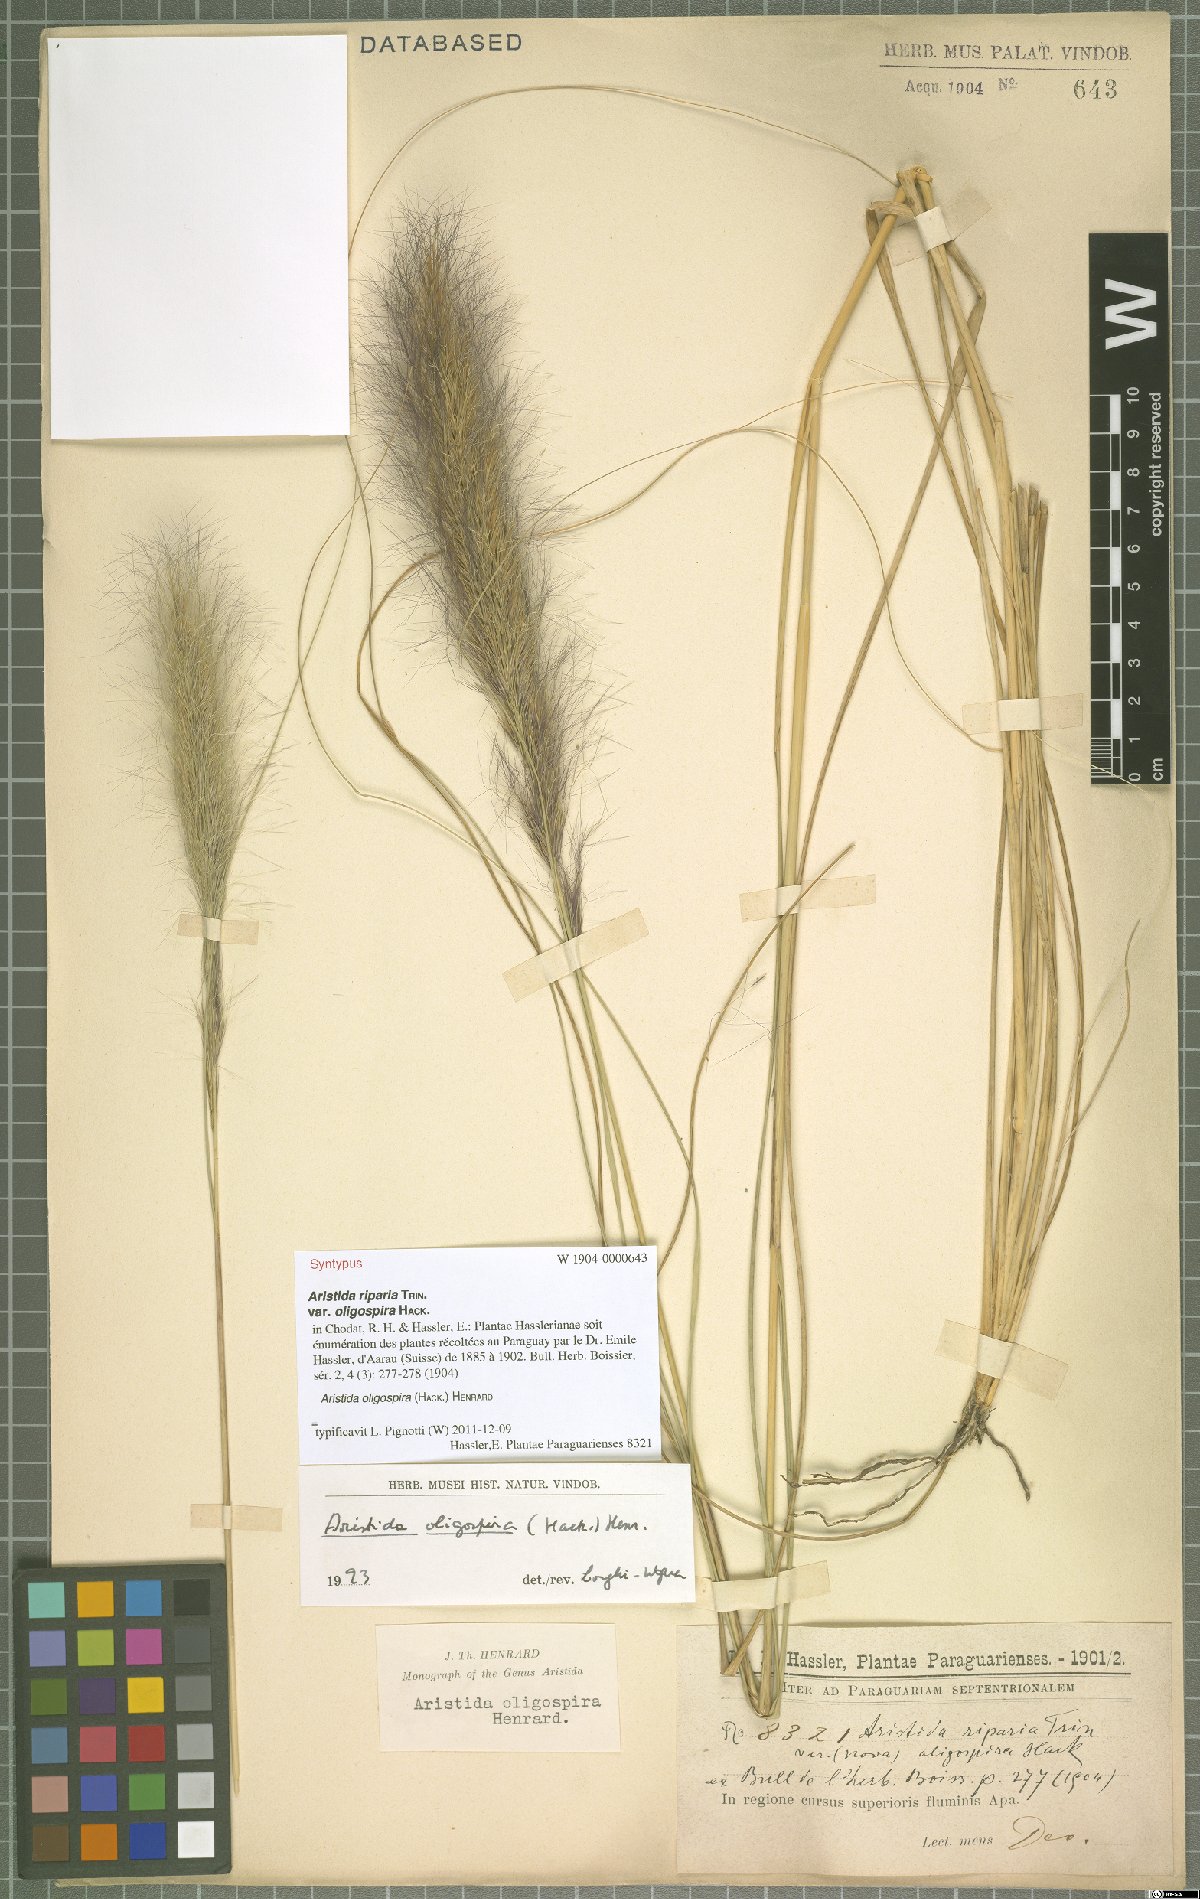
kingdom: Plantae
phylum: Tracheophyta
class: Liliopsida
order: Poales
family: Poaceae
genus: Aristida
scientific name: Aristida oligospira
